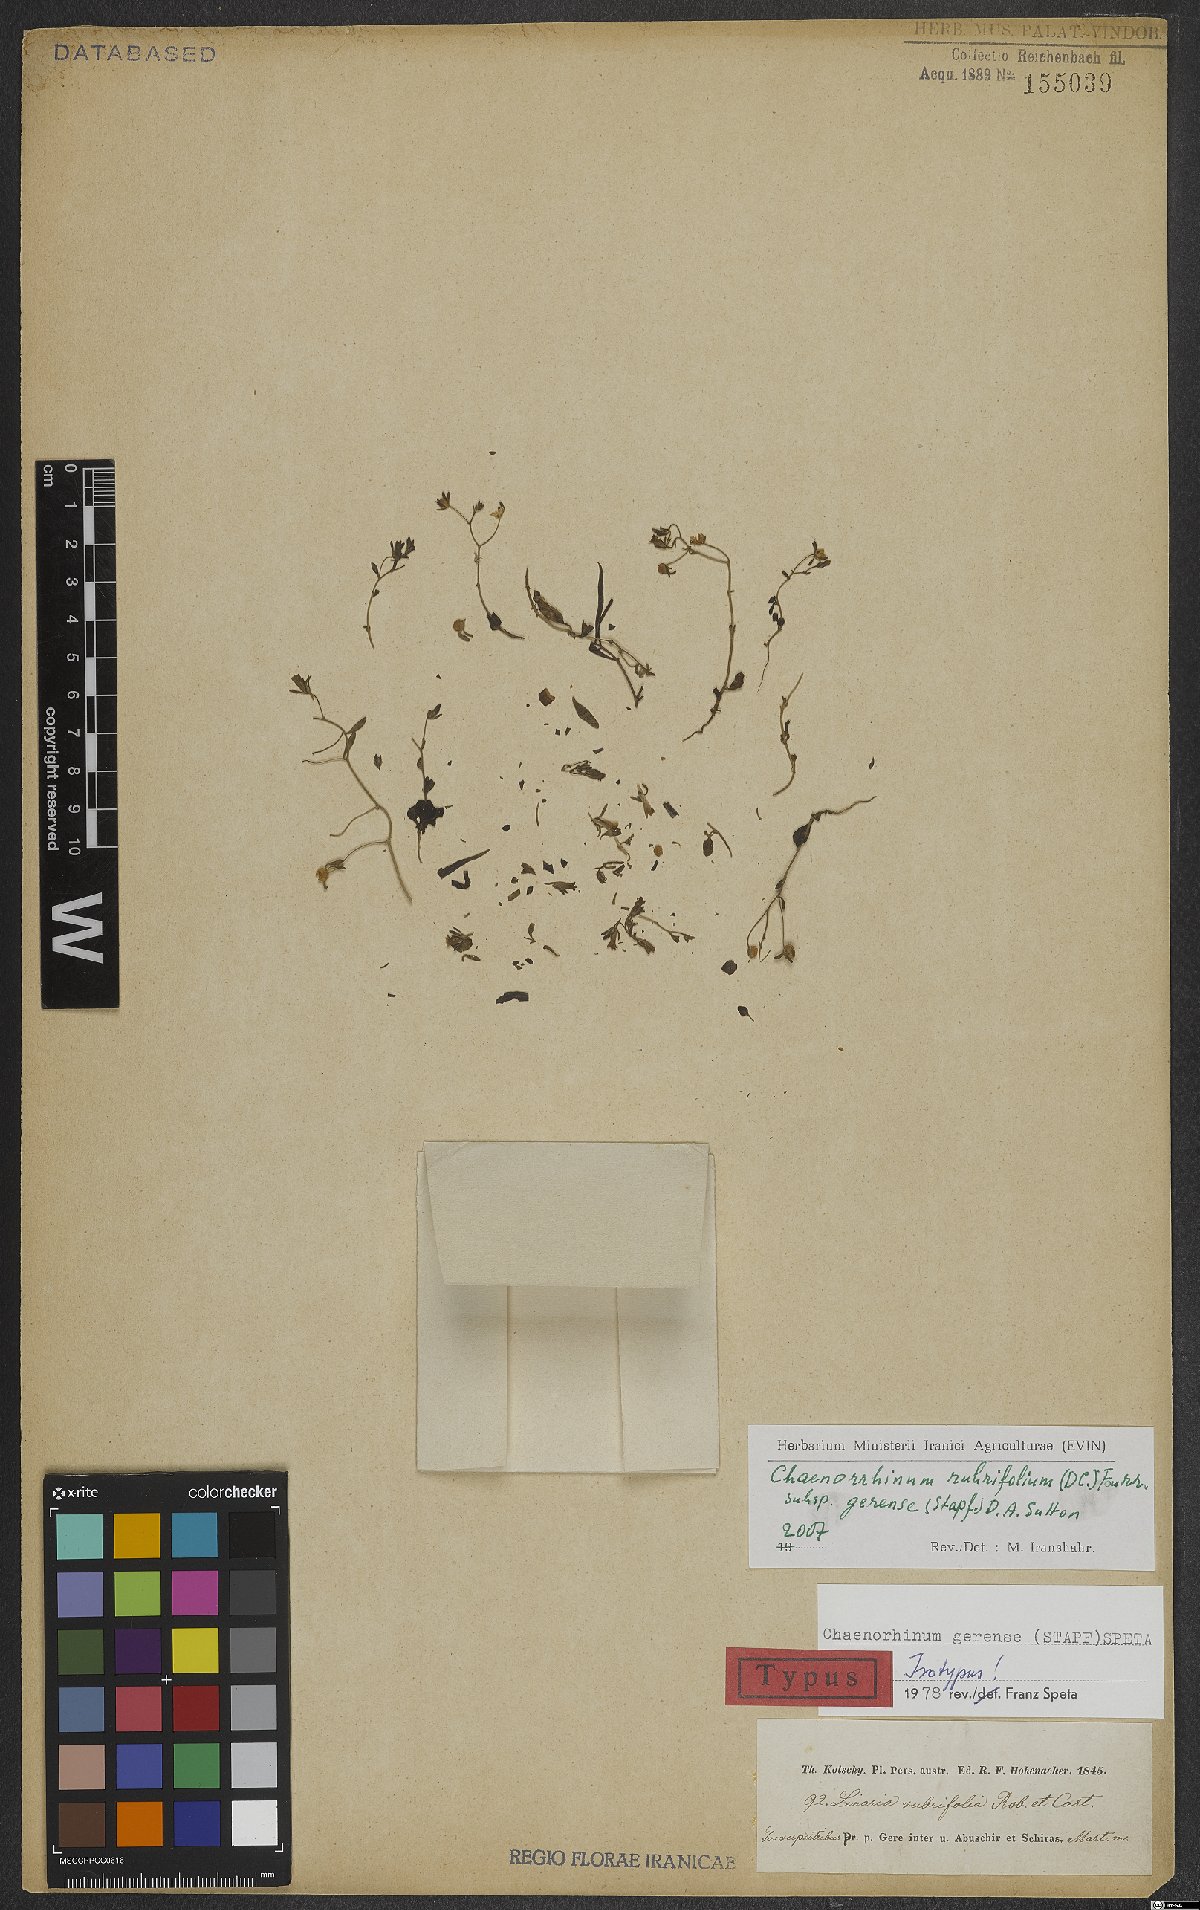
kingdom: Plantae
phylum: Tracheophyta
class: Magnoliopsida
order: Lamiales
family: Plantaginaceae
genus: Chaenorhinum
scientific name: Chaenorhinum rubrifolium
